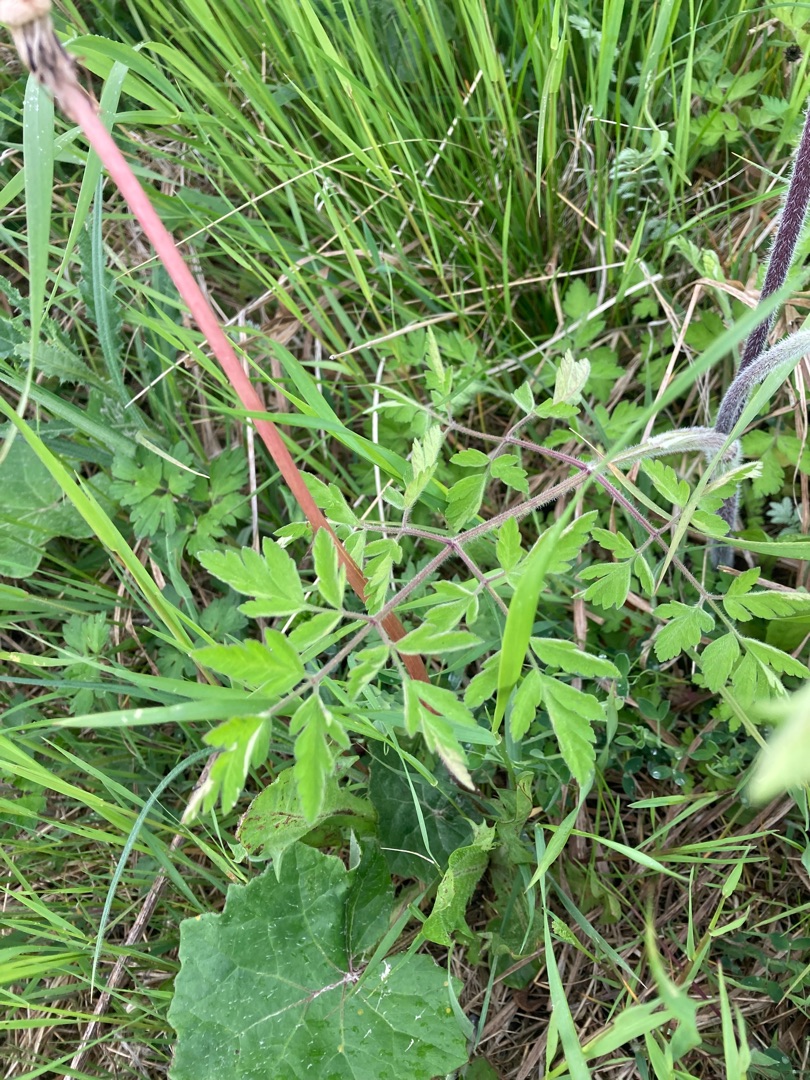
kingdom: Plantae
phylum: Tracheophyta
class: Magnoliopsida
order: Apiales
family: Apiaceae
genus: Chaerophyllum
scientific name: Chaerophyllum temulum
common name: Almindelig hulsvøb
